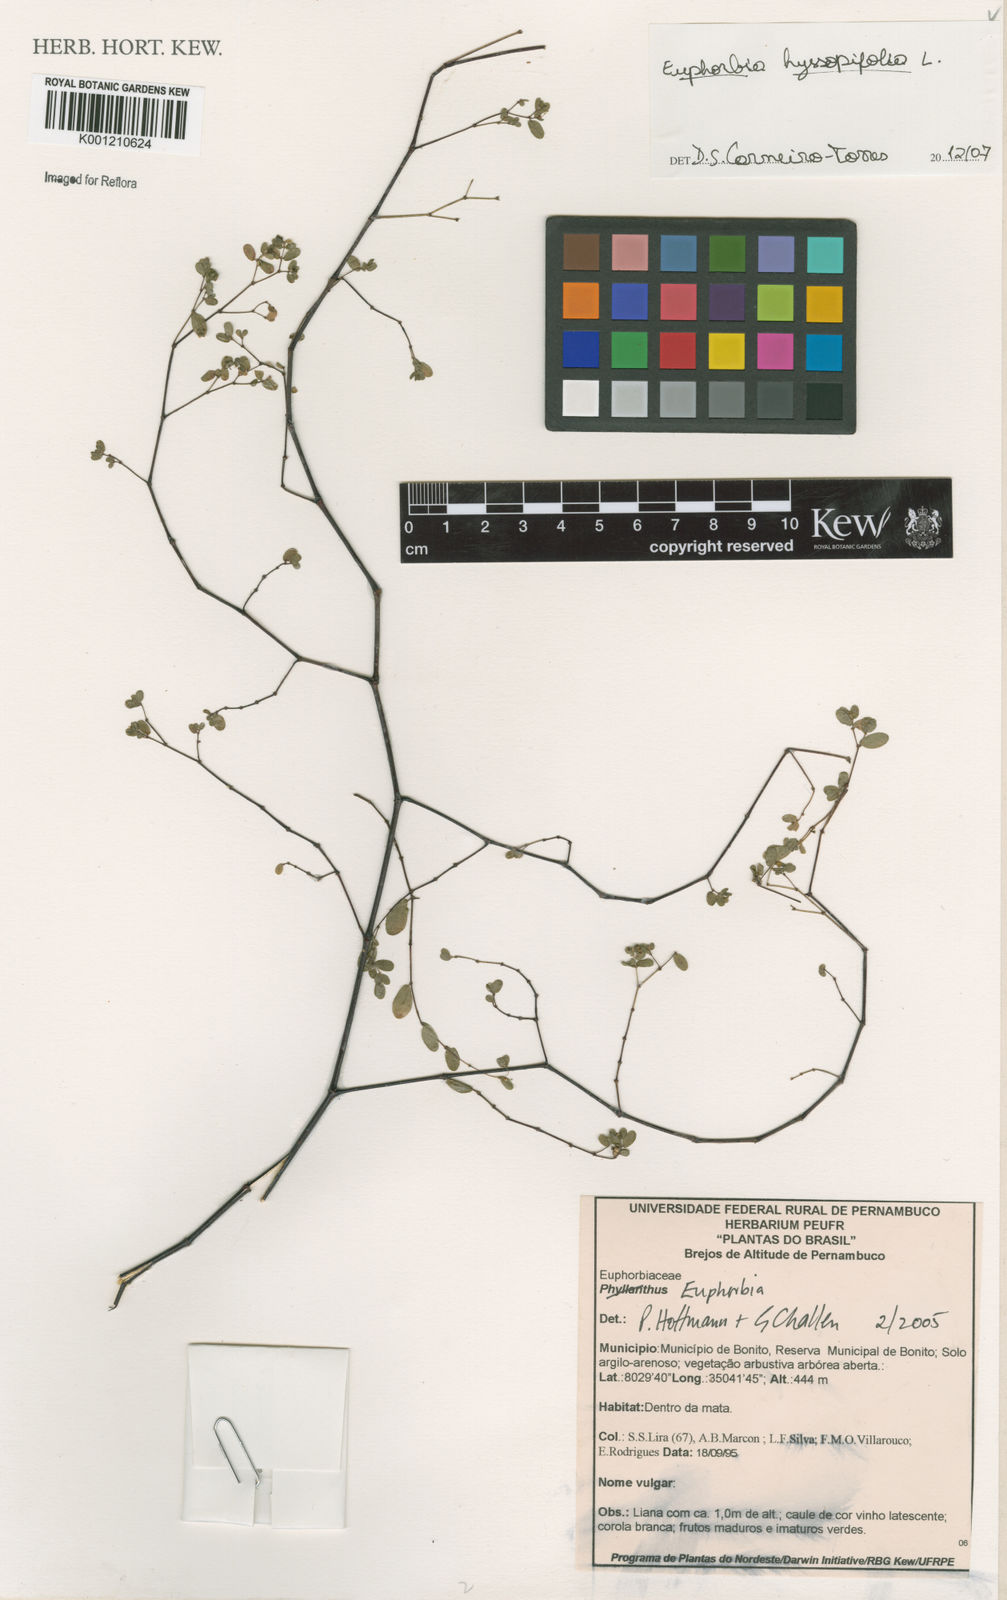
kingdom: Plantae
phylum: Tracheophyta
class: Magnoliopsida
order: Malpighiales
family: Euphorbiaceae
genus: Euphorbia
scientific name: Euphorbia hyssopifolia
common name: Hyssopleaf sandmat
